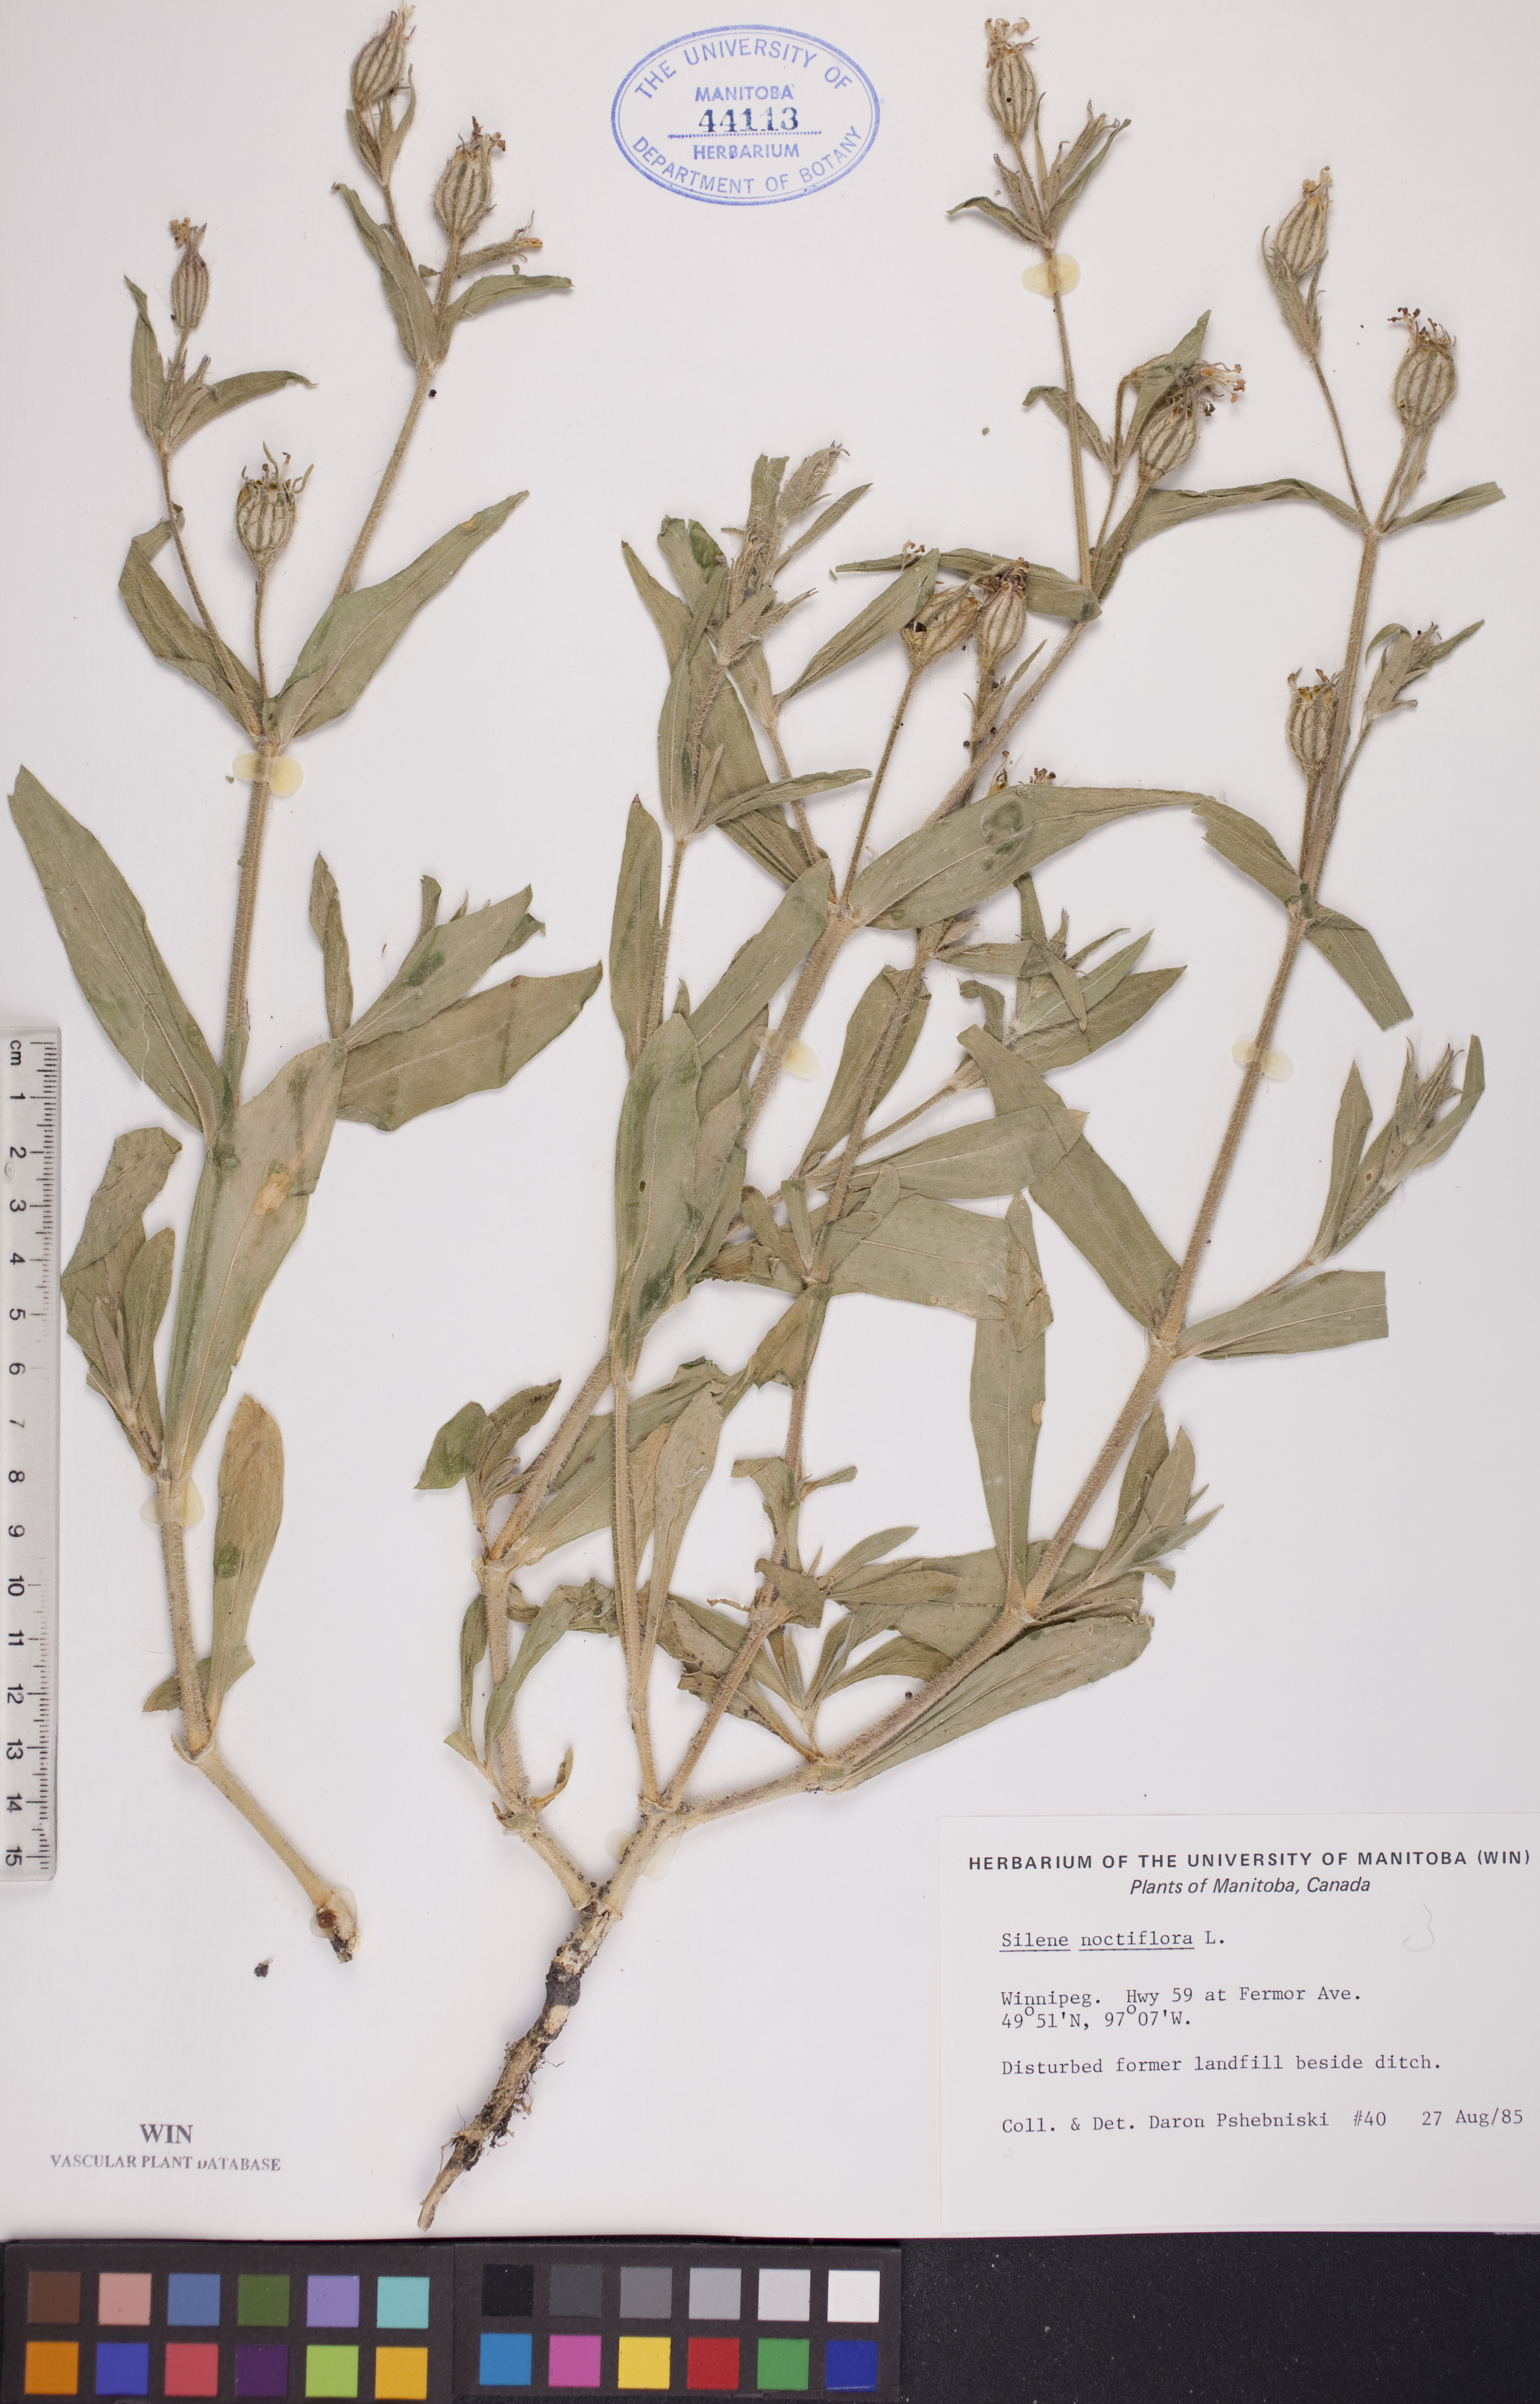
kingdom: Plantae
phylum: Tracheophyta
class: Magnoliopsida
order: Caryophyllales
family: Caryophyllaceae
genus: Silene
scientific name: Silene noctiflora
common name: Night-flowering catchfly
